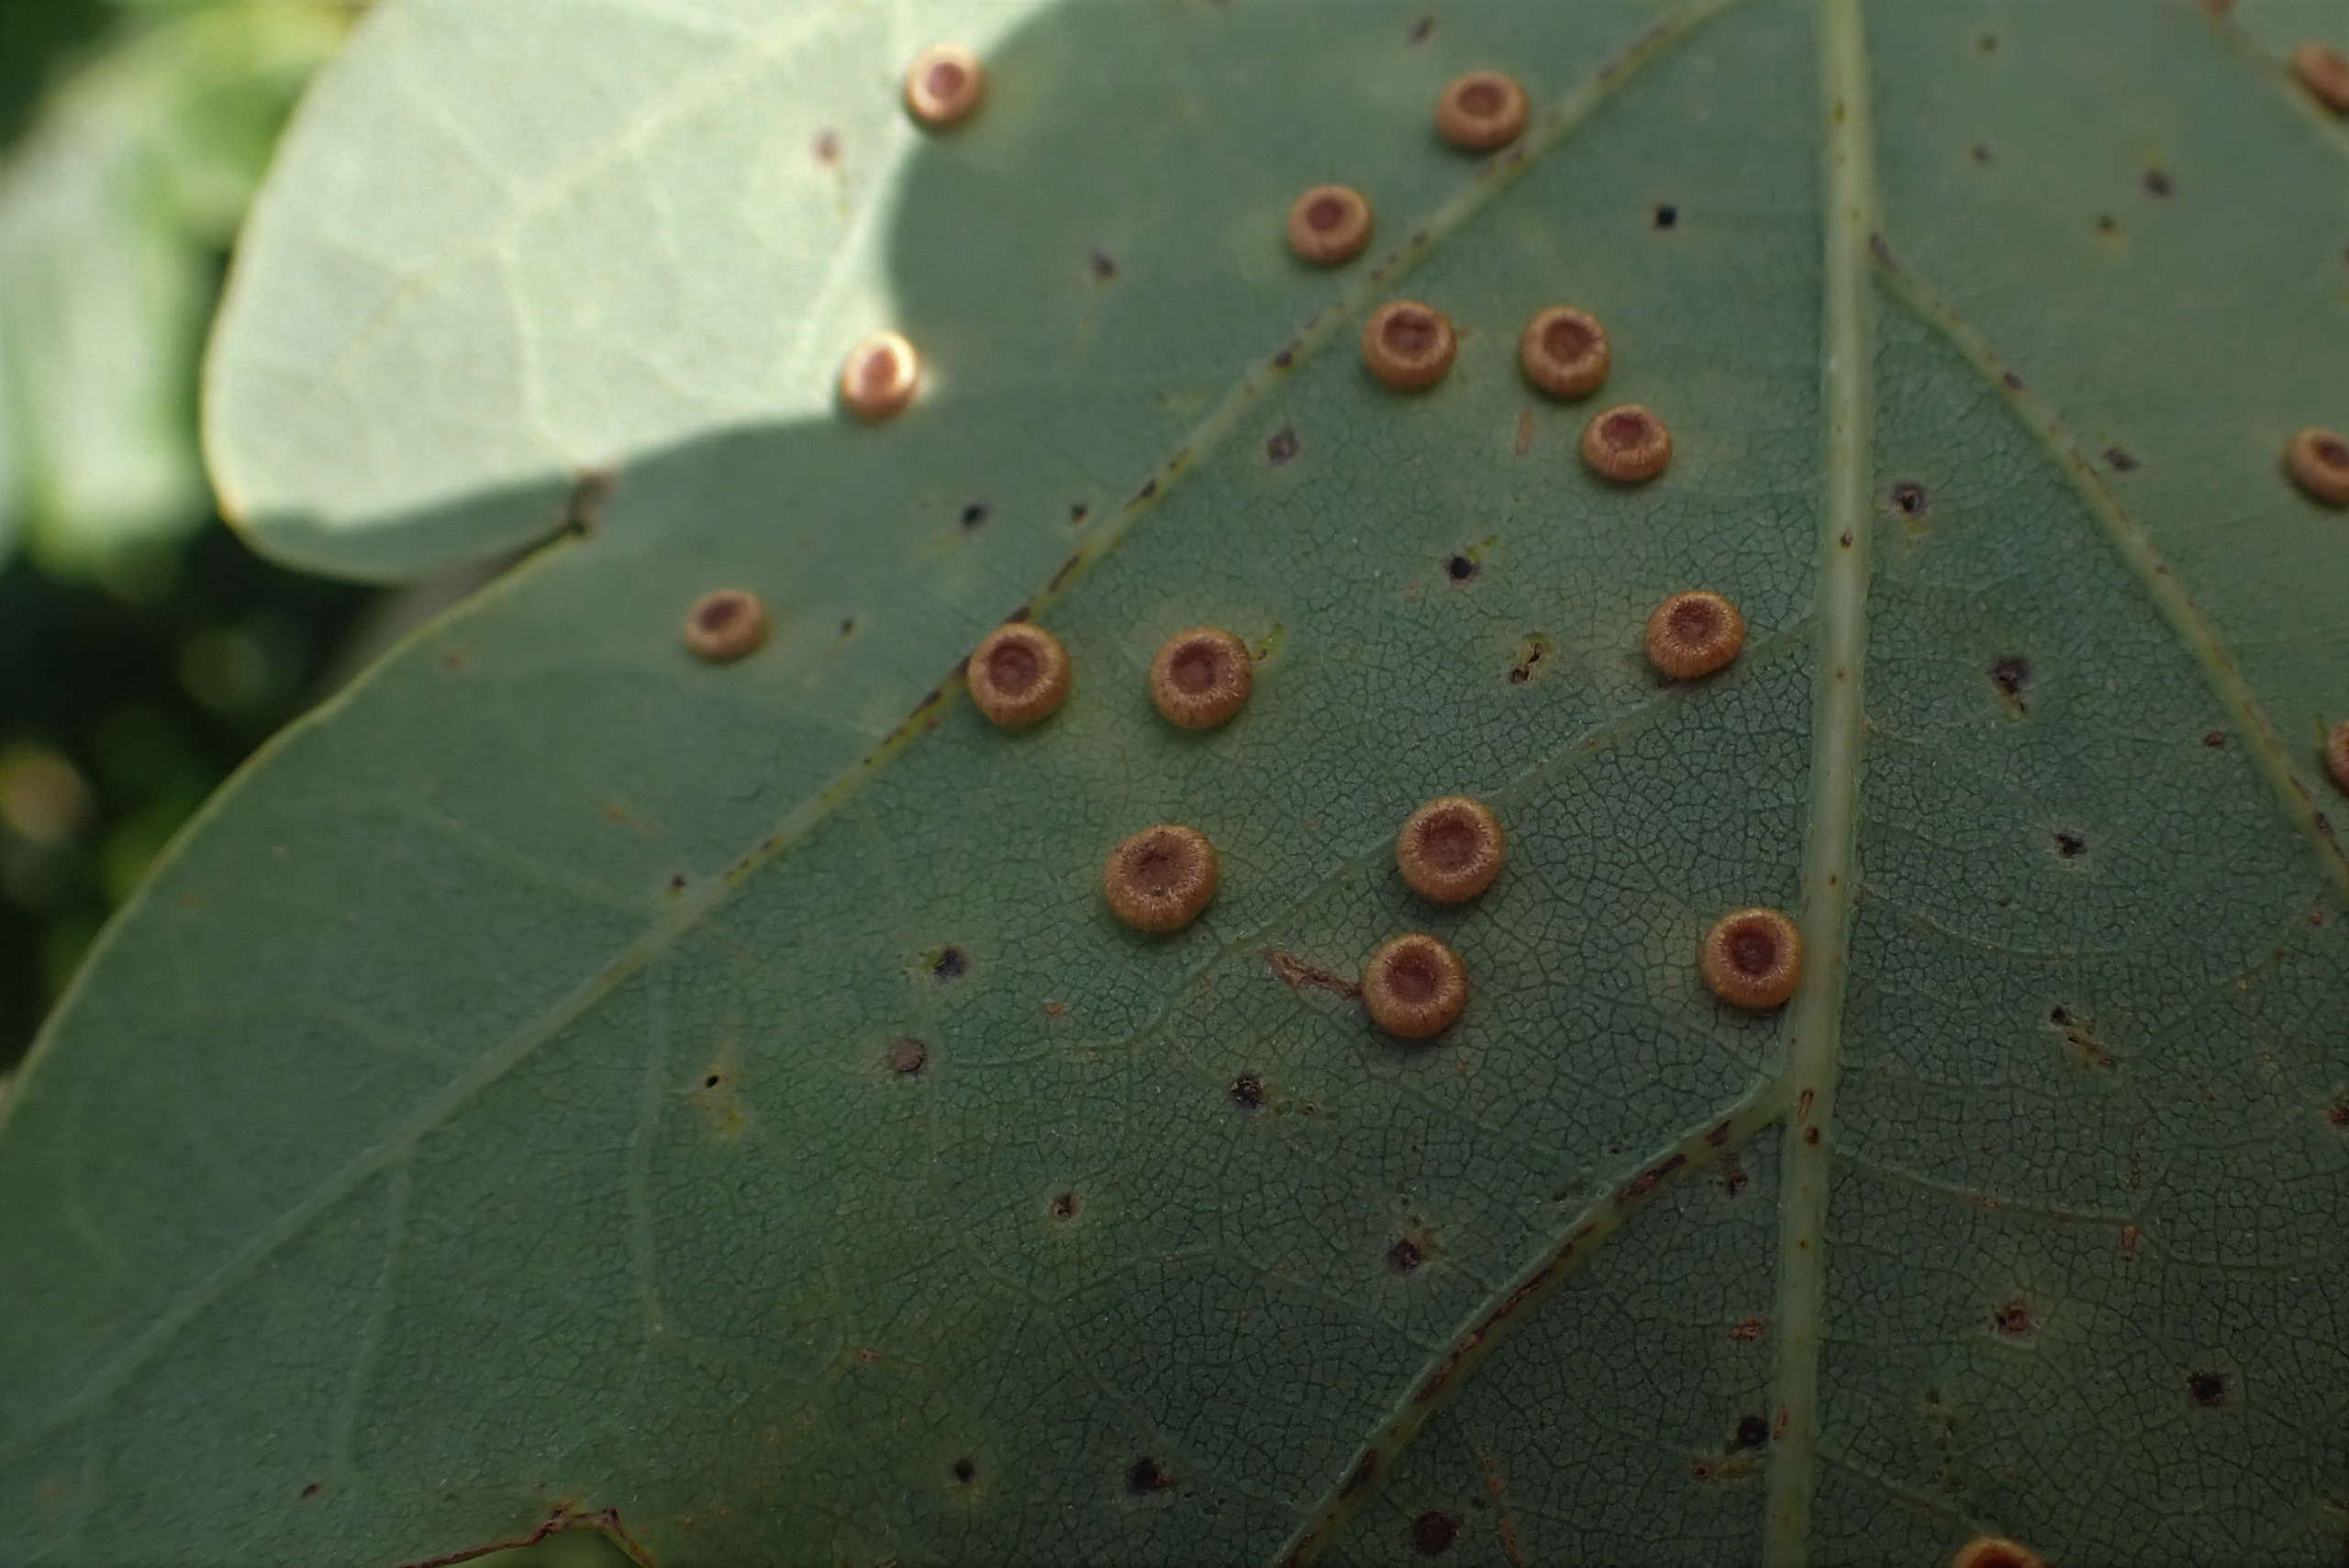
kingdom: Animalia
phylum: Arthropoda
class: Insecta
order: Hymenoptera
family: Cynipidae
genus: Neuroterus
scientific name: Neuroterus numismalis
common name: Knapgalhveps
